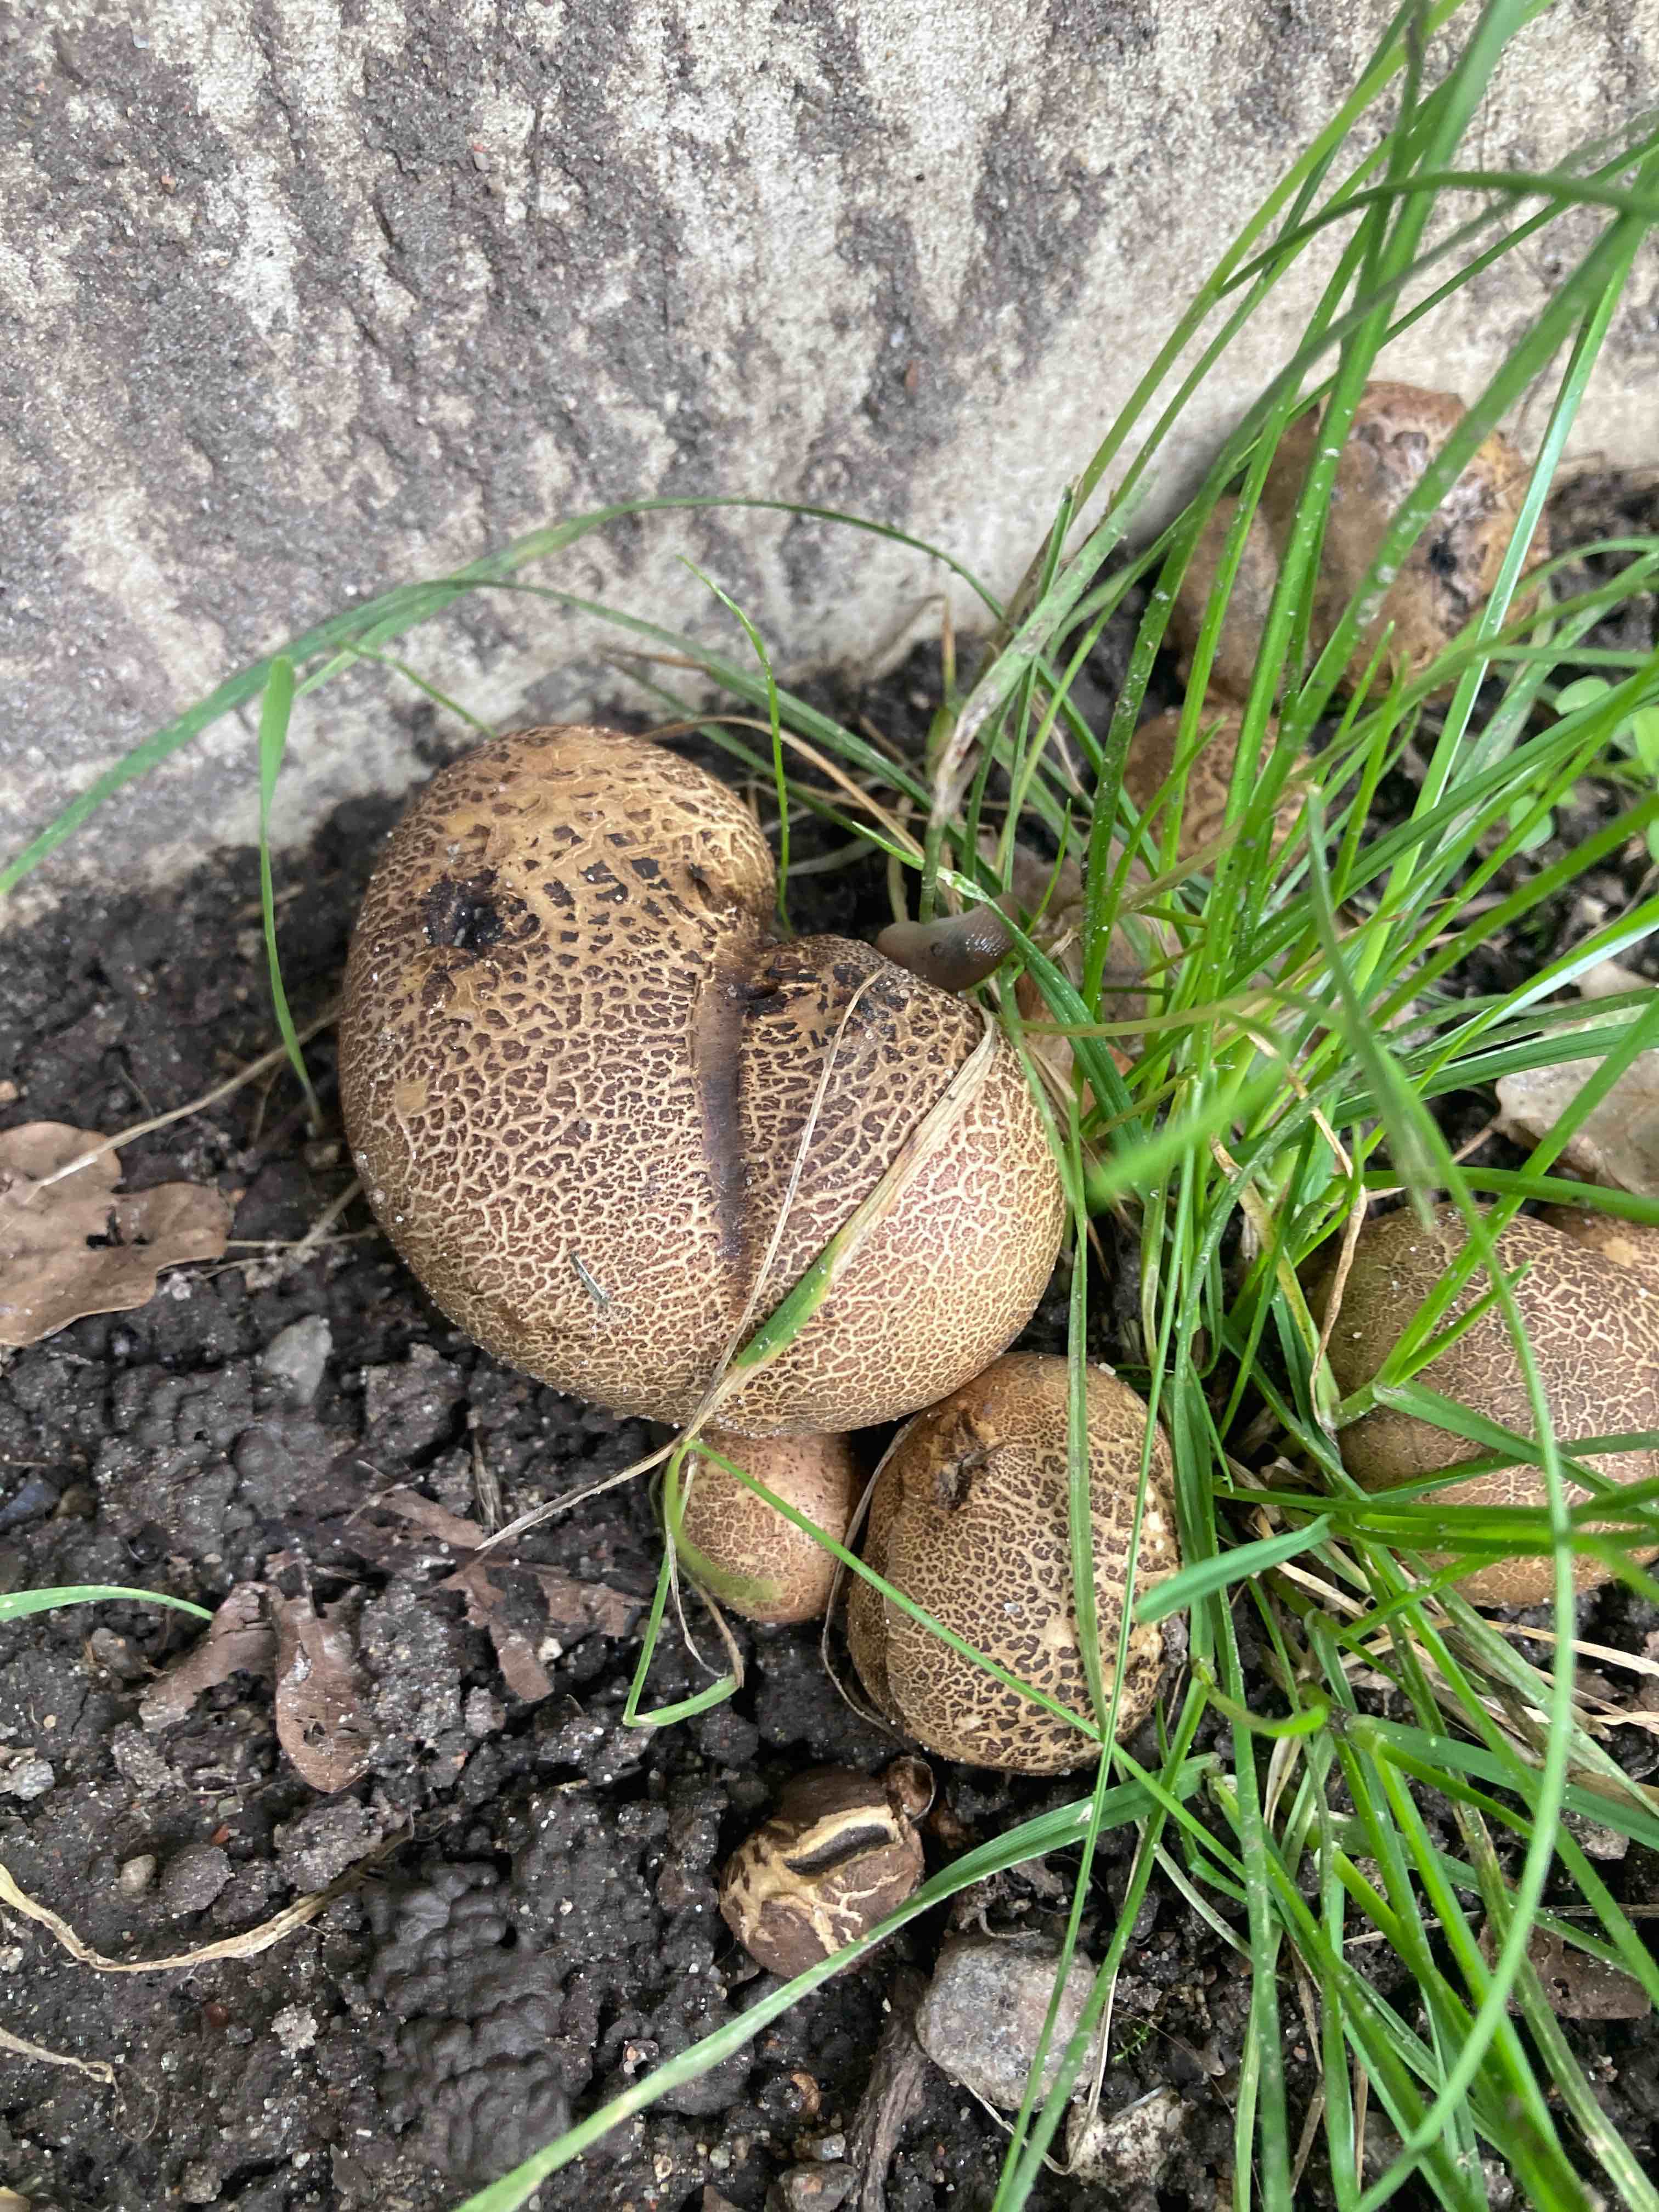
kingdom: Fungi
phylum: Basidiomycota
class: Agaricomycetes
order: Boletales
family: Sclerodermataceae
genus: Scleroderma
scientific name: Scleroderma verrucosum
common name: stilket bruskbold
